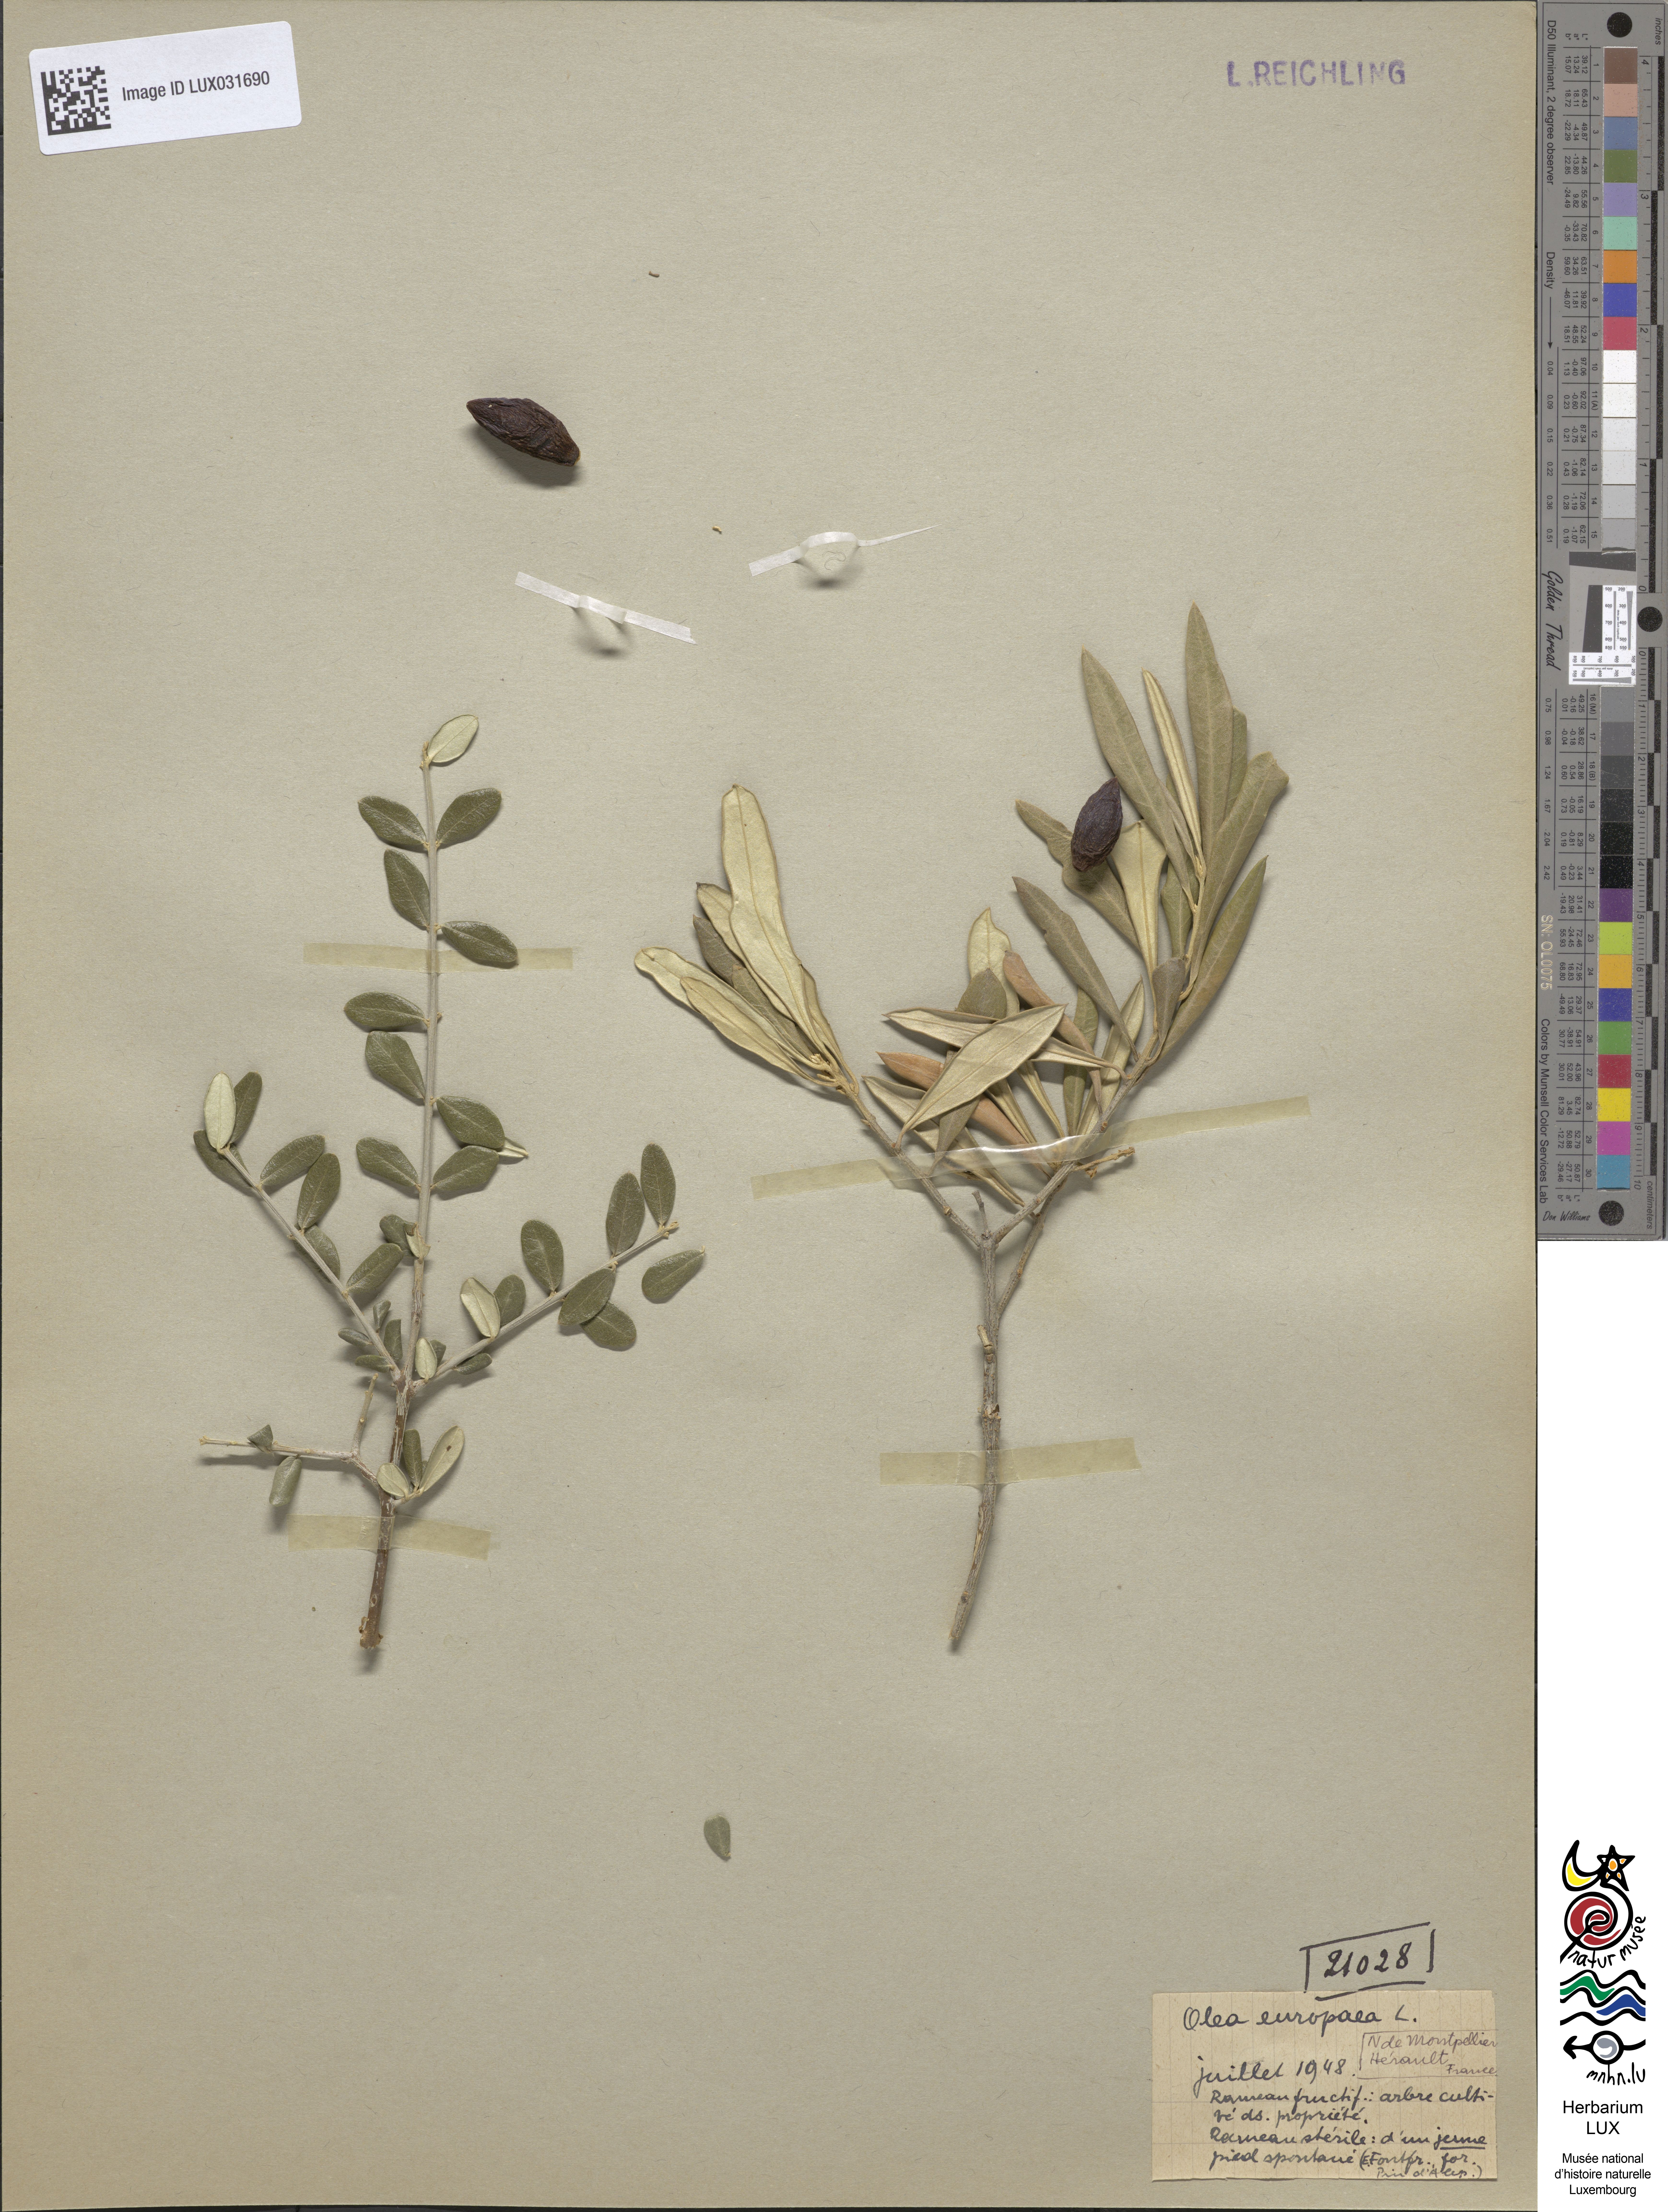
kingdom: Plantae
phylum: Tracheophyta
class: Magnoliopsida
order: Lamiales
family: Oleaceae
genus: Olea
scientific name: Olea europaea
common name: Olive
